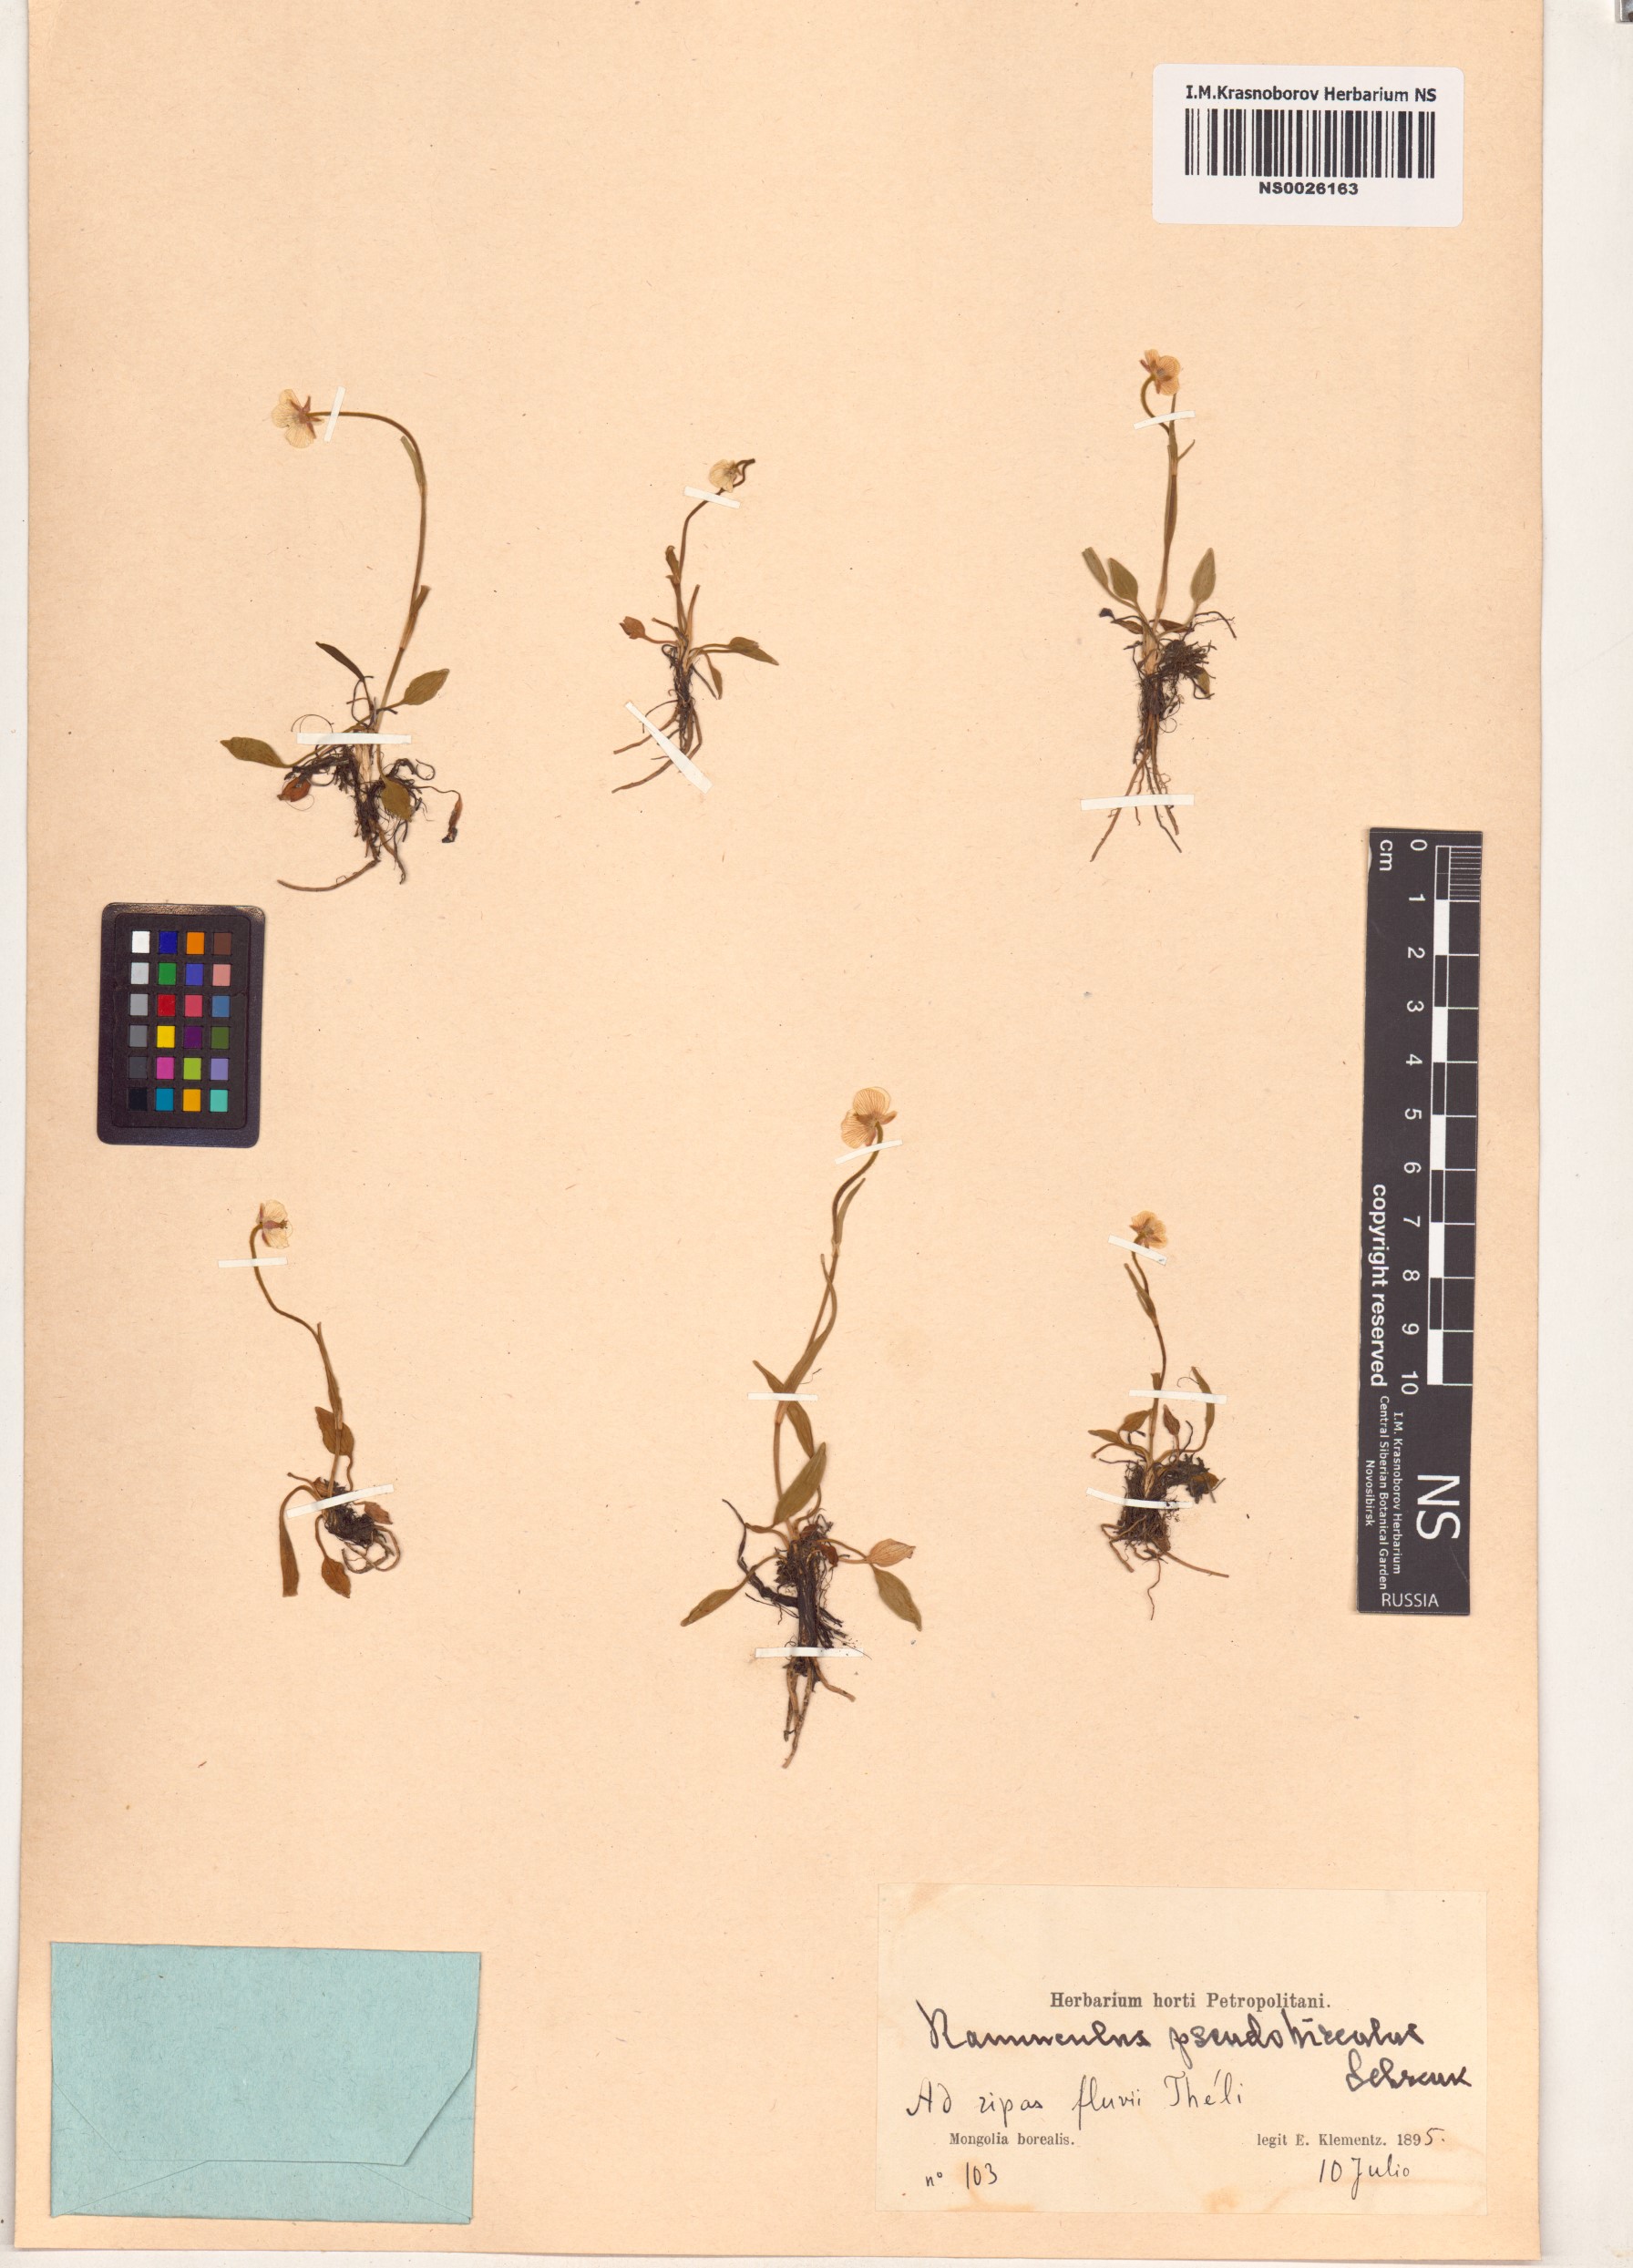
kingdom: Plantae
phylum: Tracheophyta
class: Magnoliopsida
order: Ranunculales
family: Ranunculaceae
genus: Ranunculus
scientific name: Ranunculus pseudohirculus
